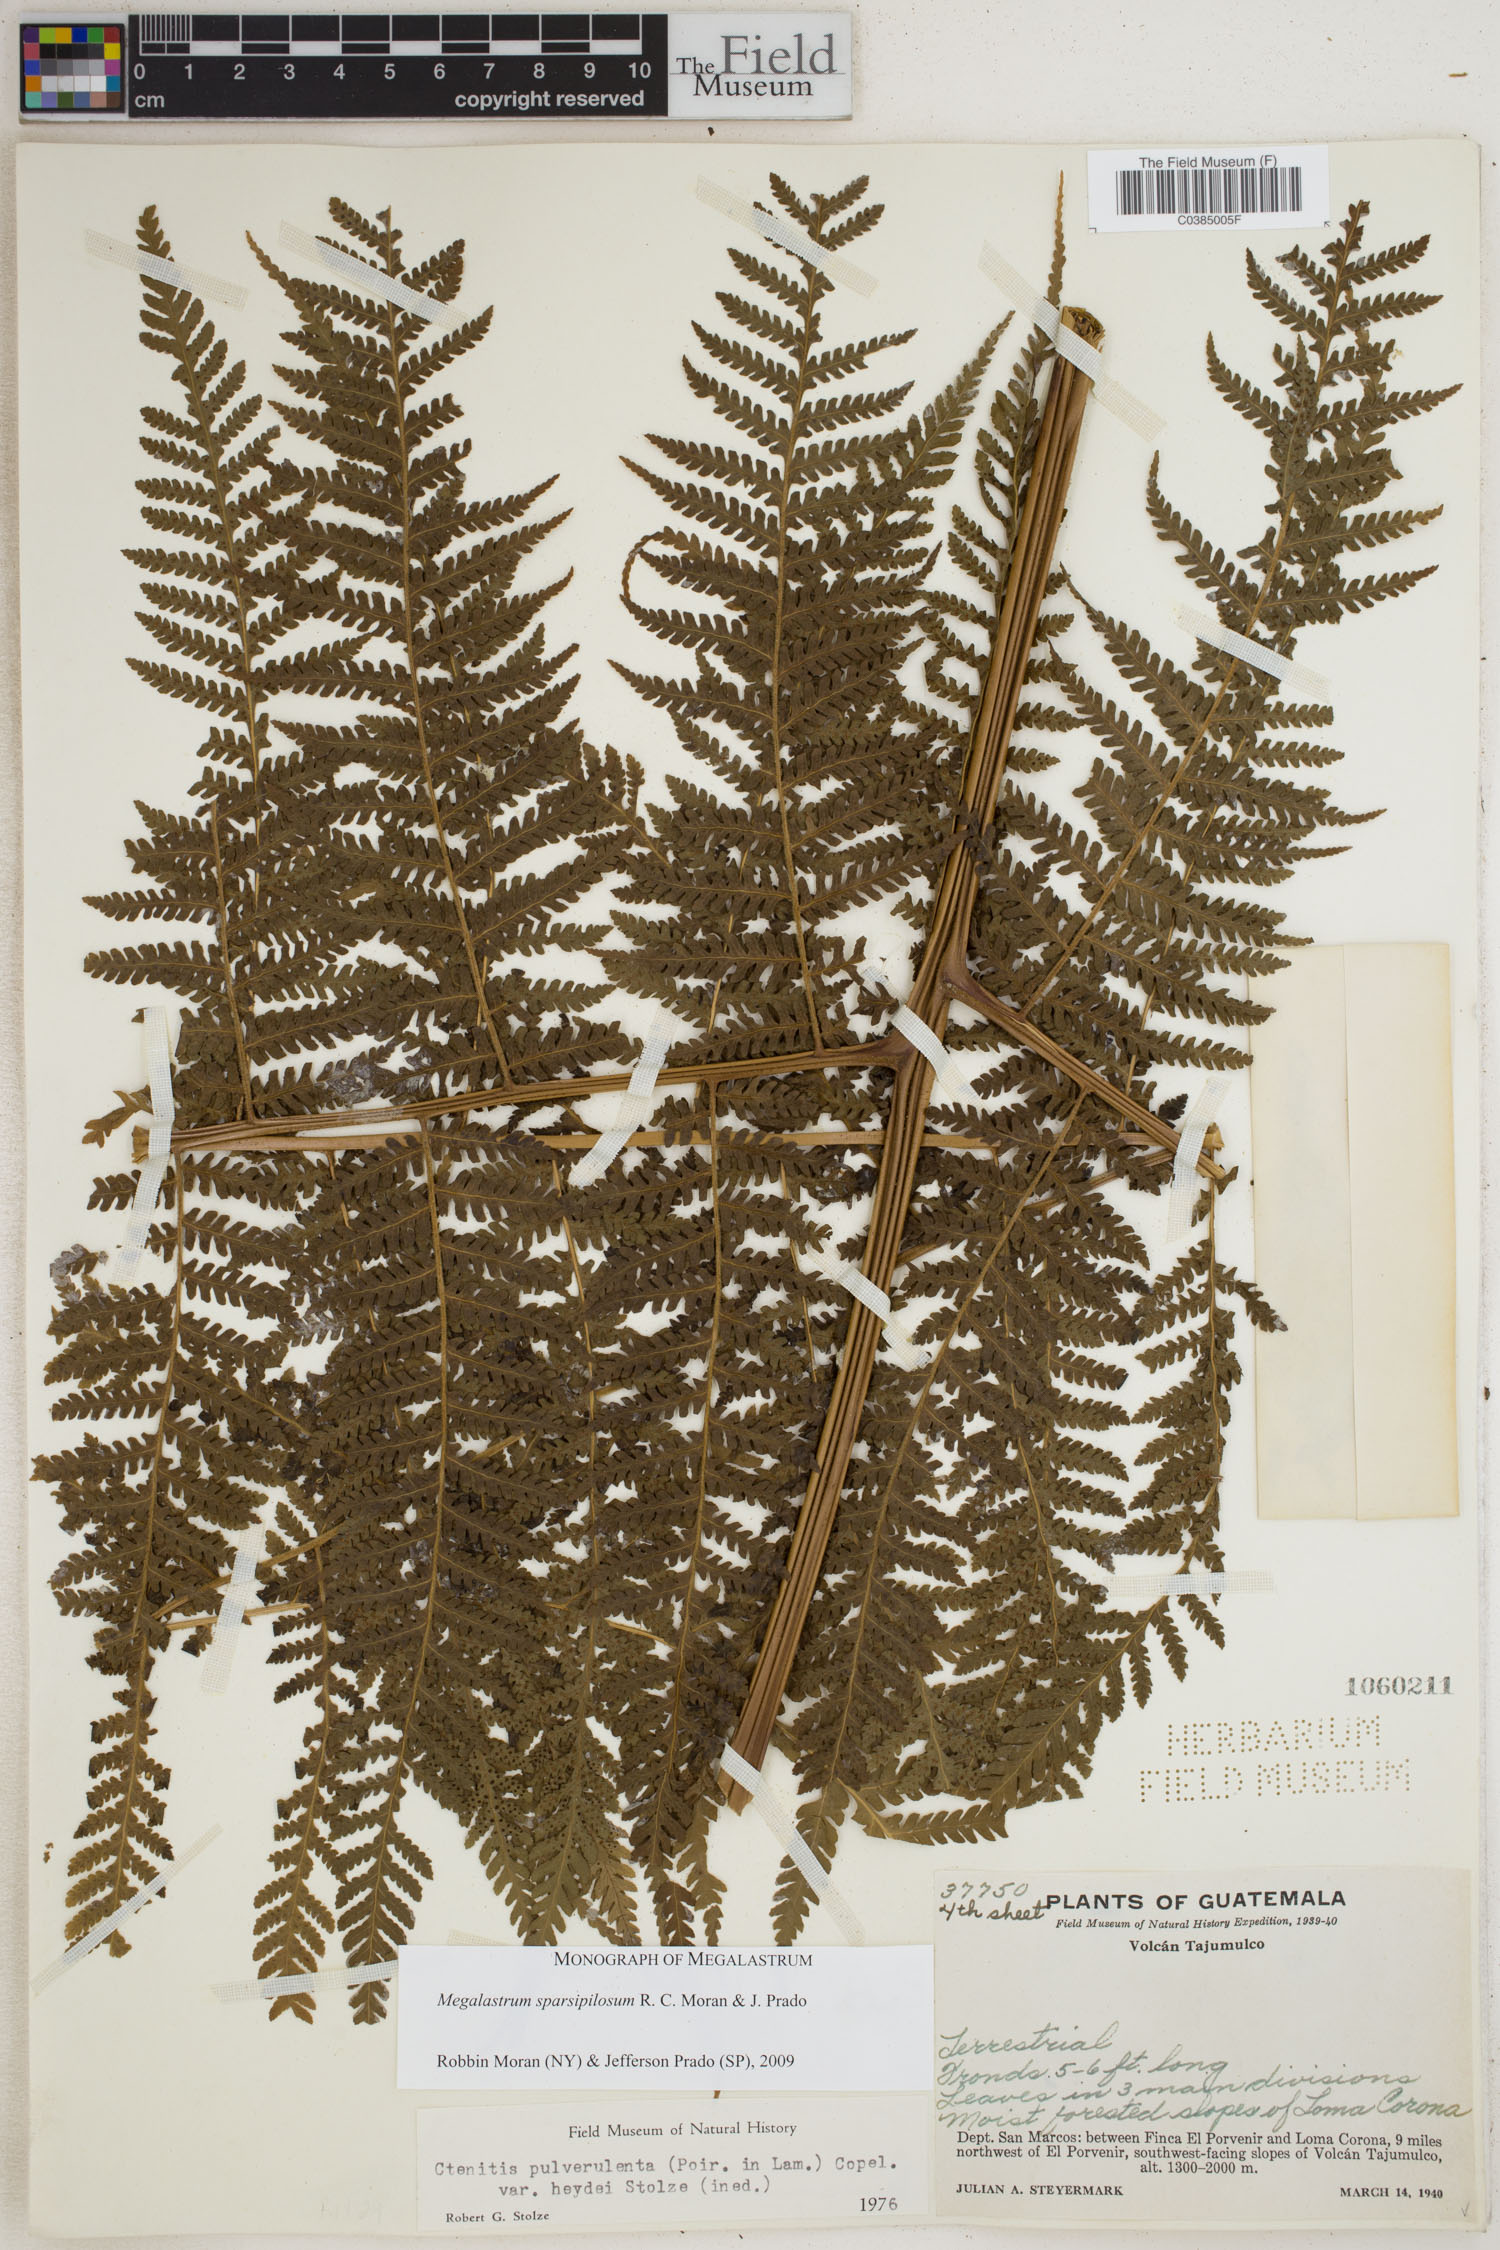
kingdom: Plantae
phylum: Tracheophyta
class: Polypodiopsida
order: Polypodiales
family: Dryopteridaceae
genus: Megalastrum
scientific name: Megalastrum sparsipilosum
